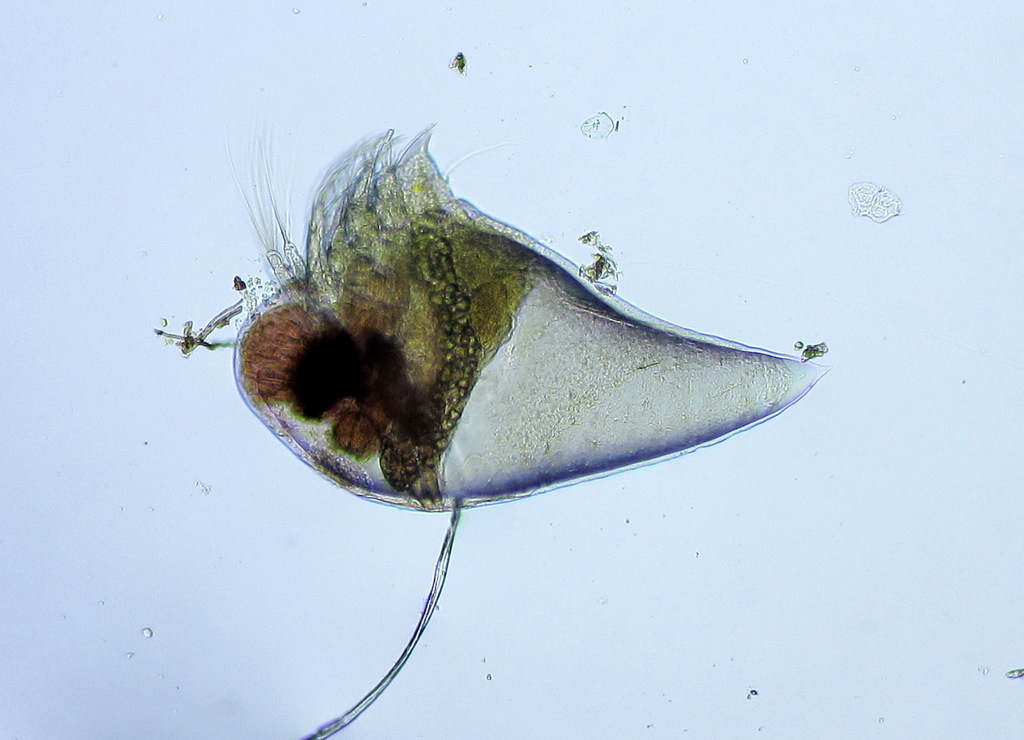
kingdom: Animalia
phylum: Arthropoda
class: Branchiopoda
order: Diplostraca
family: Podonidae
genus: Evadne
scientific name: Evadne nordmanni
